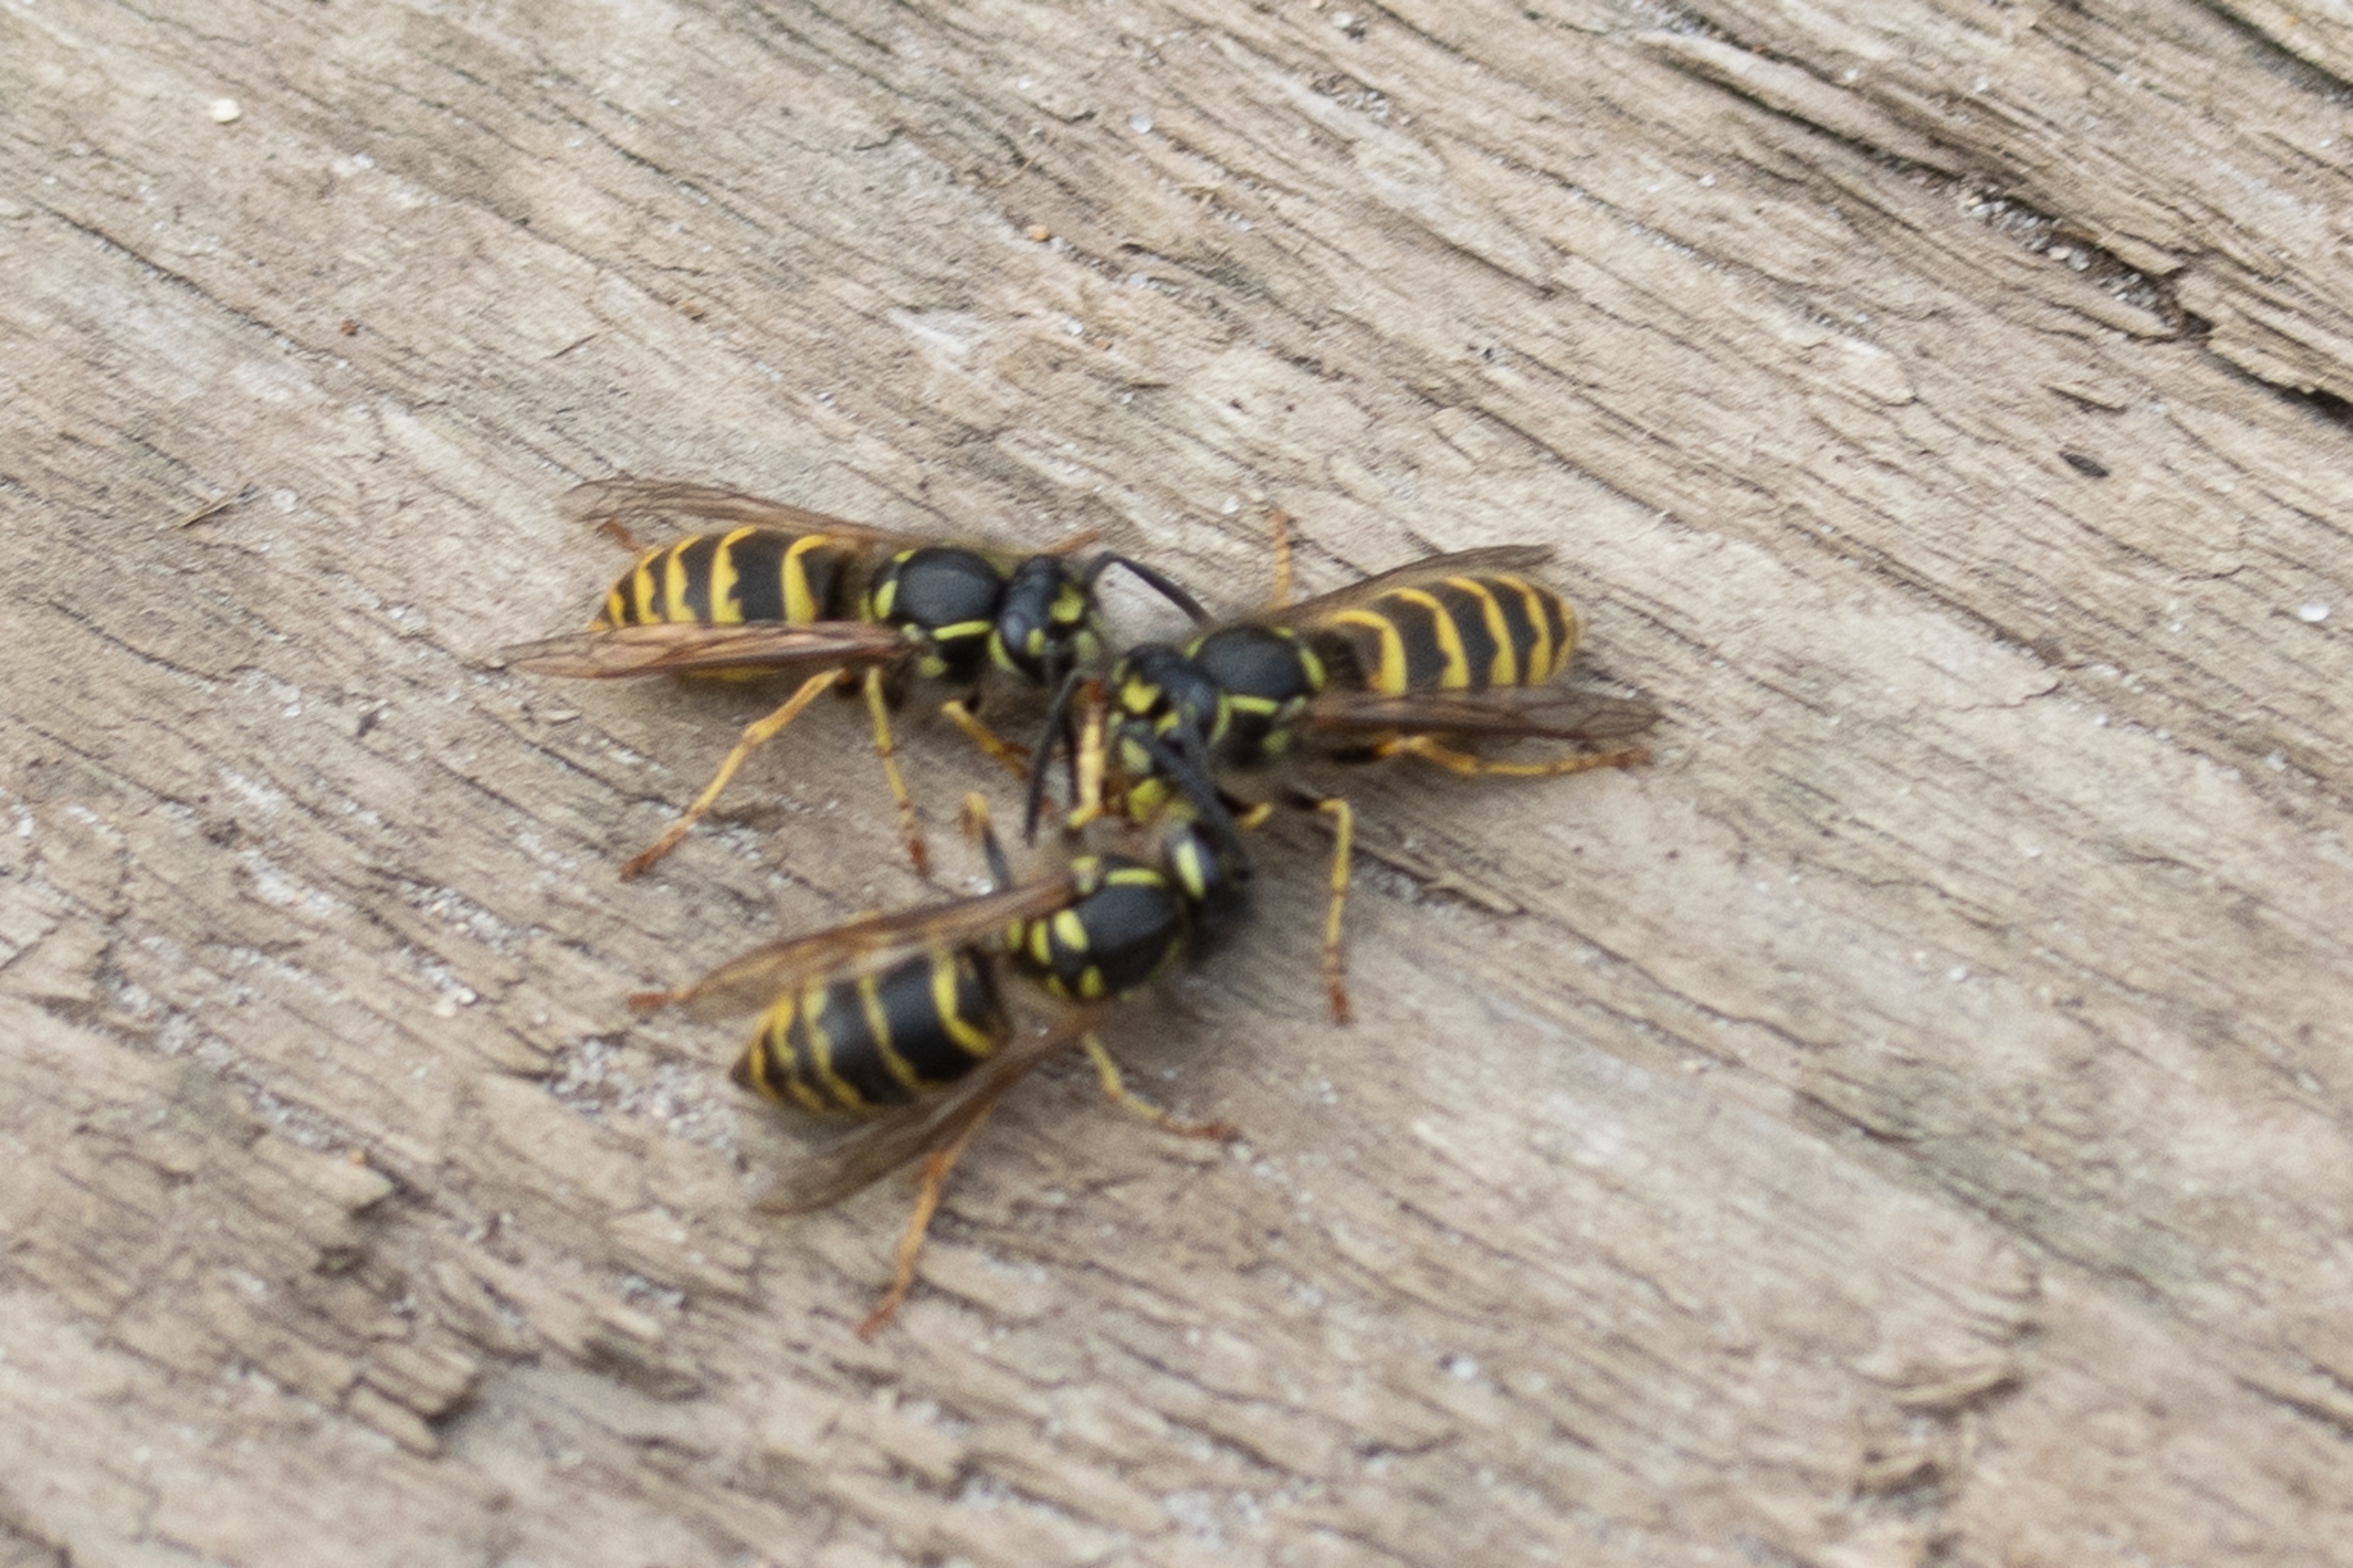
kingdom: Animalia
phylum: Arthropoda
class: Insecta
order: Hymenoptera
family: Vespidae
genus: Vespula
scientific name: Vespula vulgaris
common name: Almindelig gedehams
